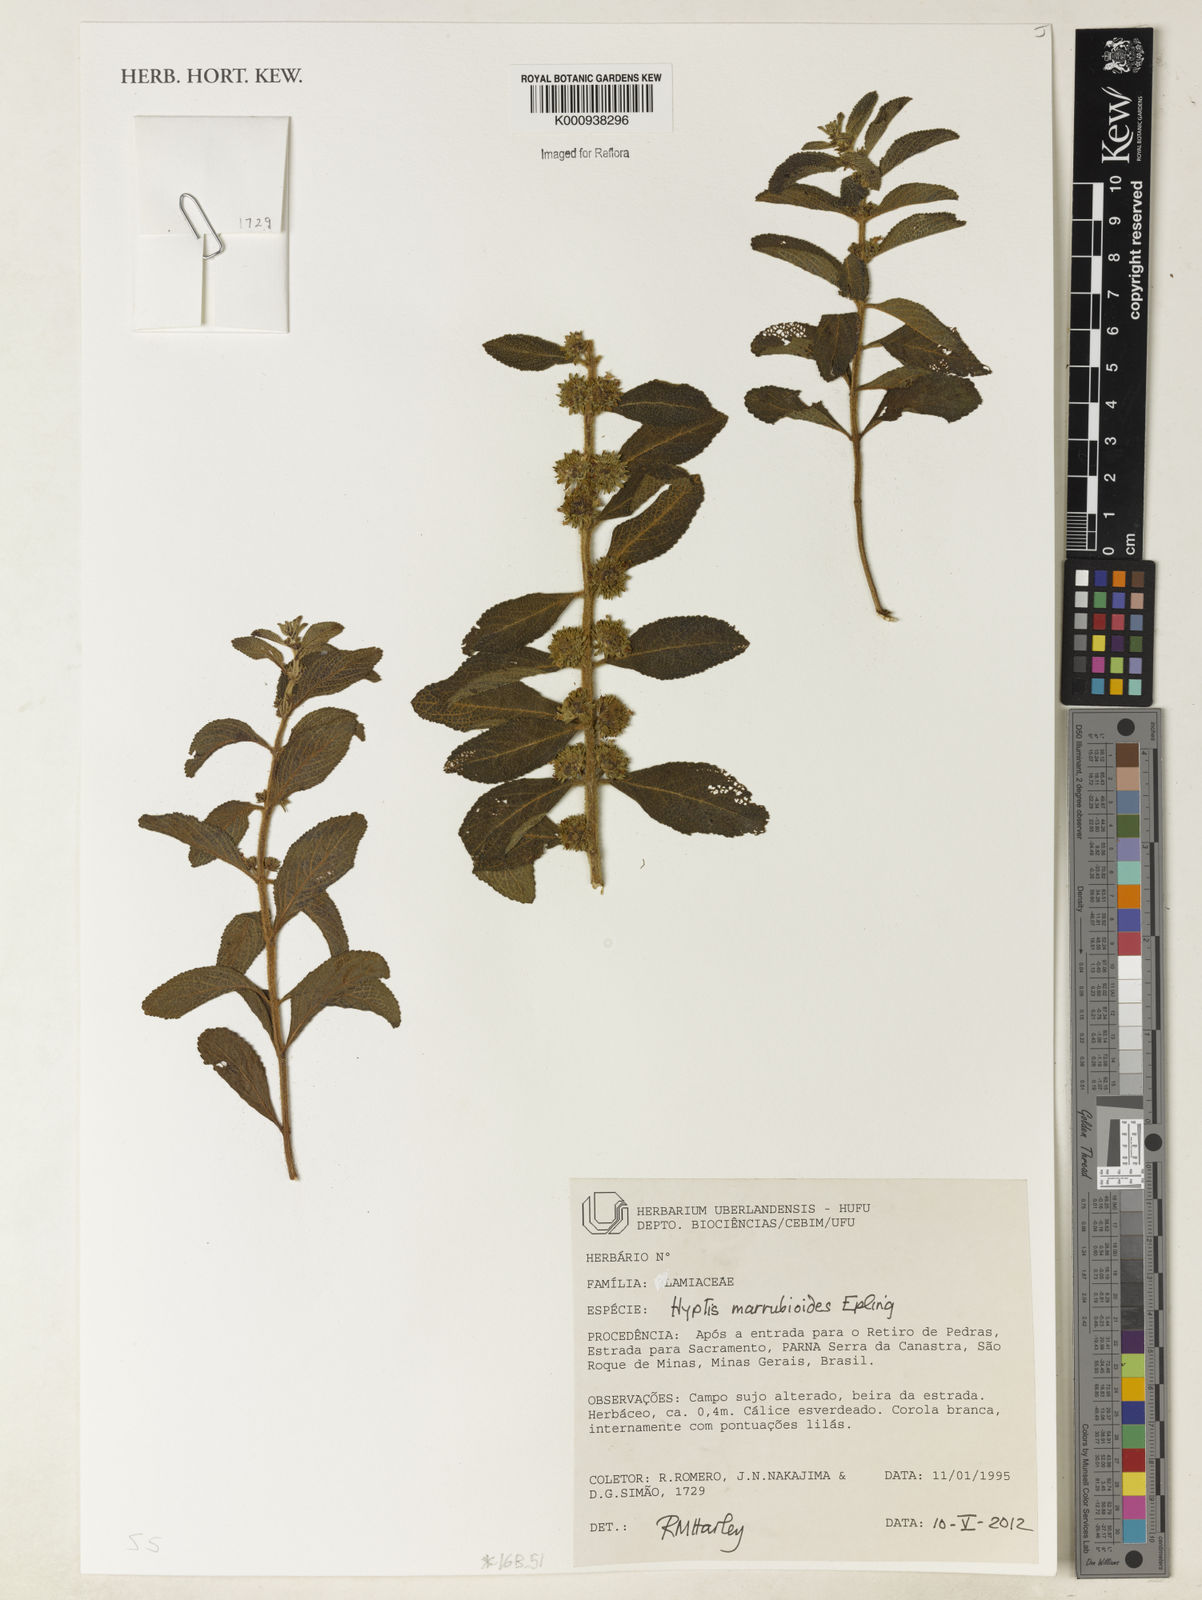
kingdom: Plantae
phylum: Tracheophyta
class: Magnoliopsida
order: Lamiales
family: Lamiaceae
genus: Hyptis
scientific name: Hyptis marrubioides
